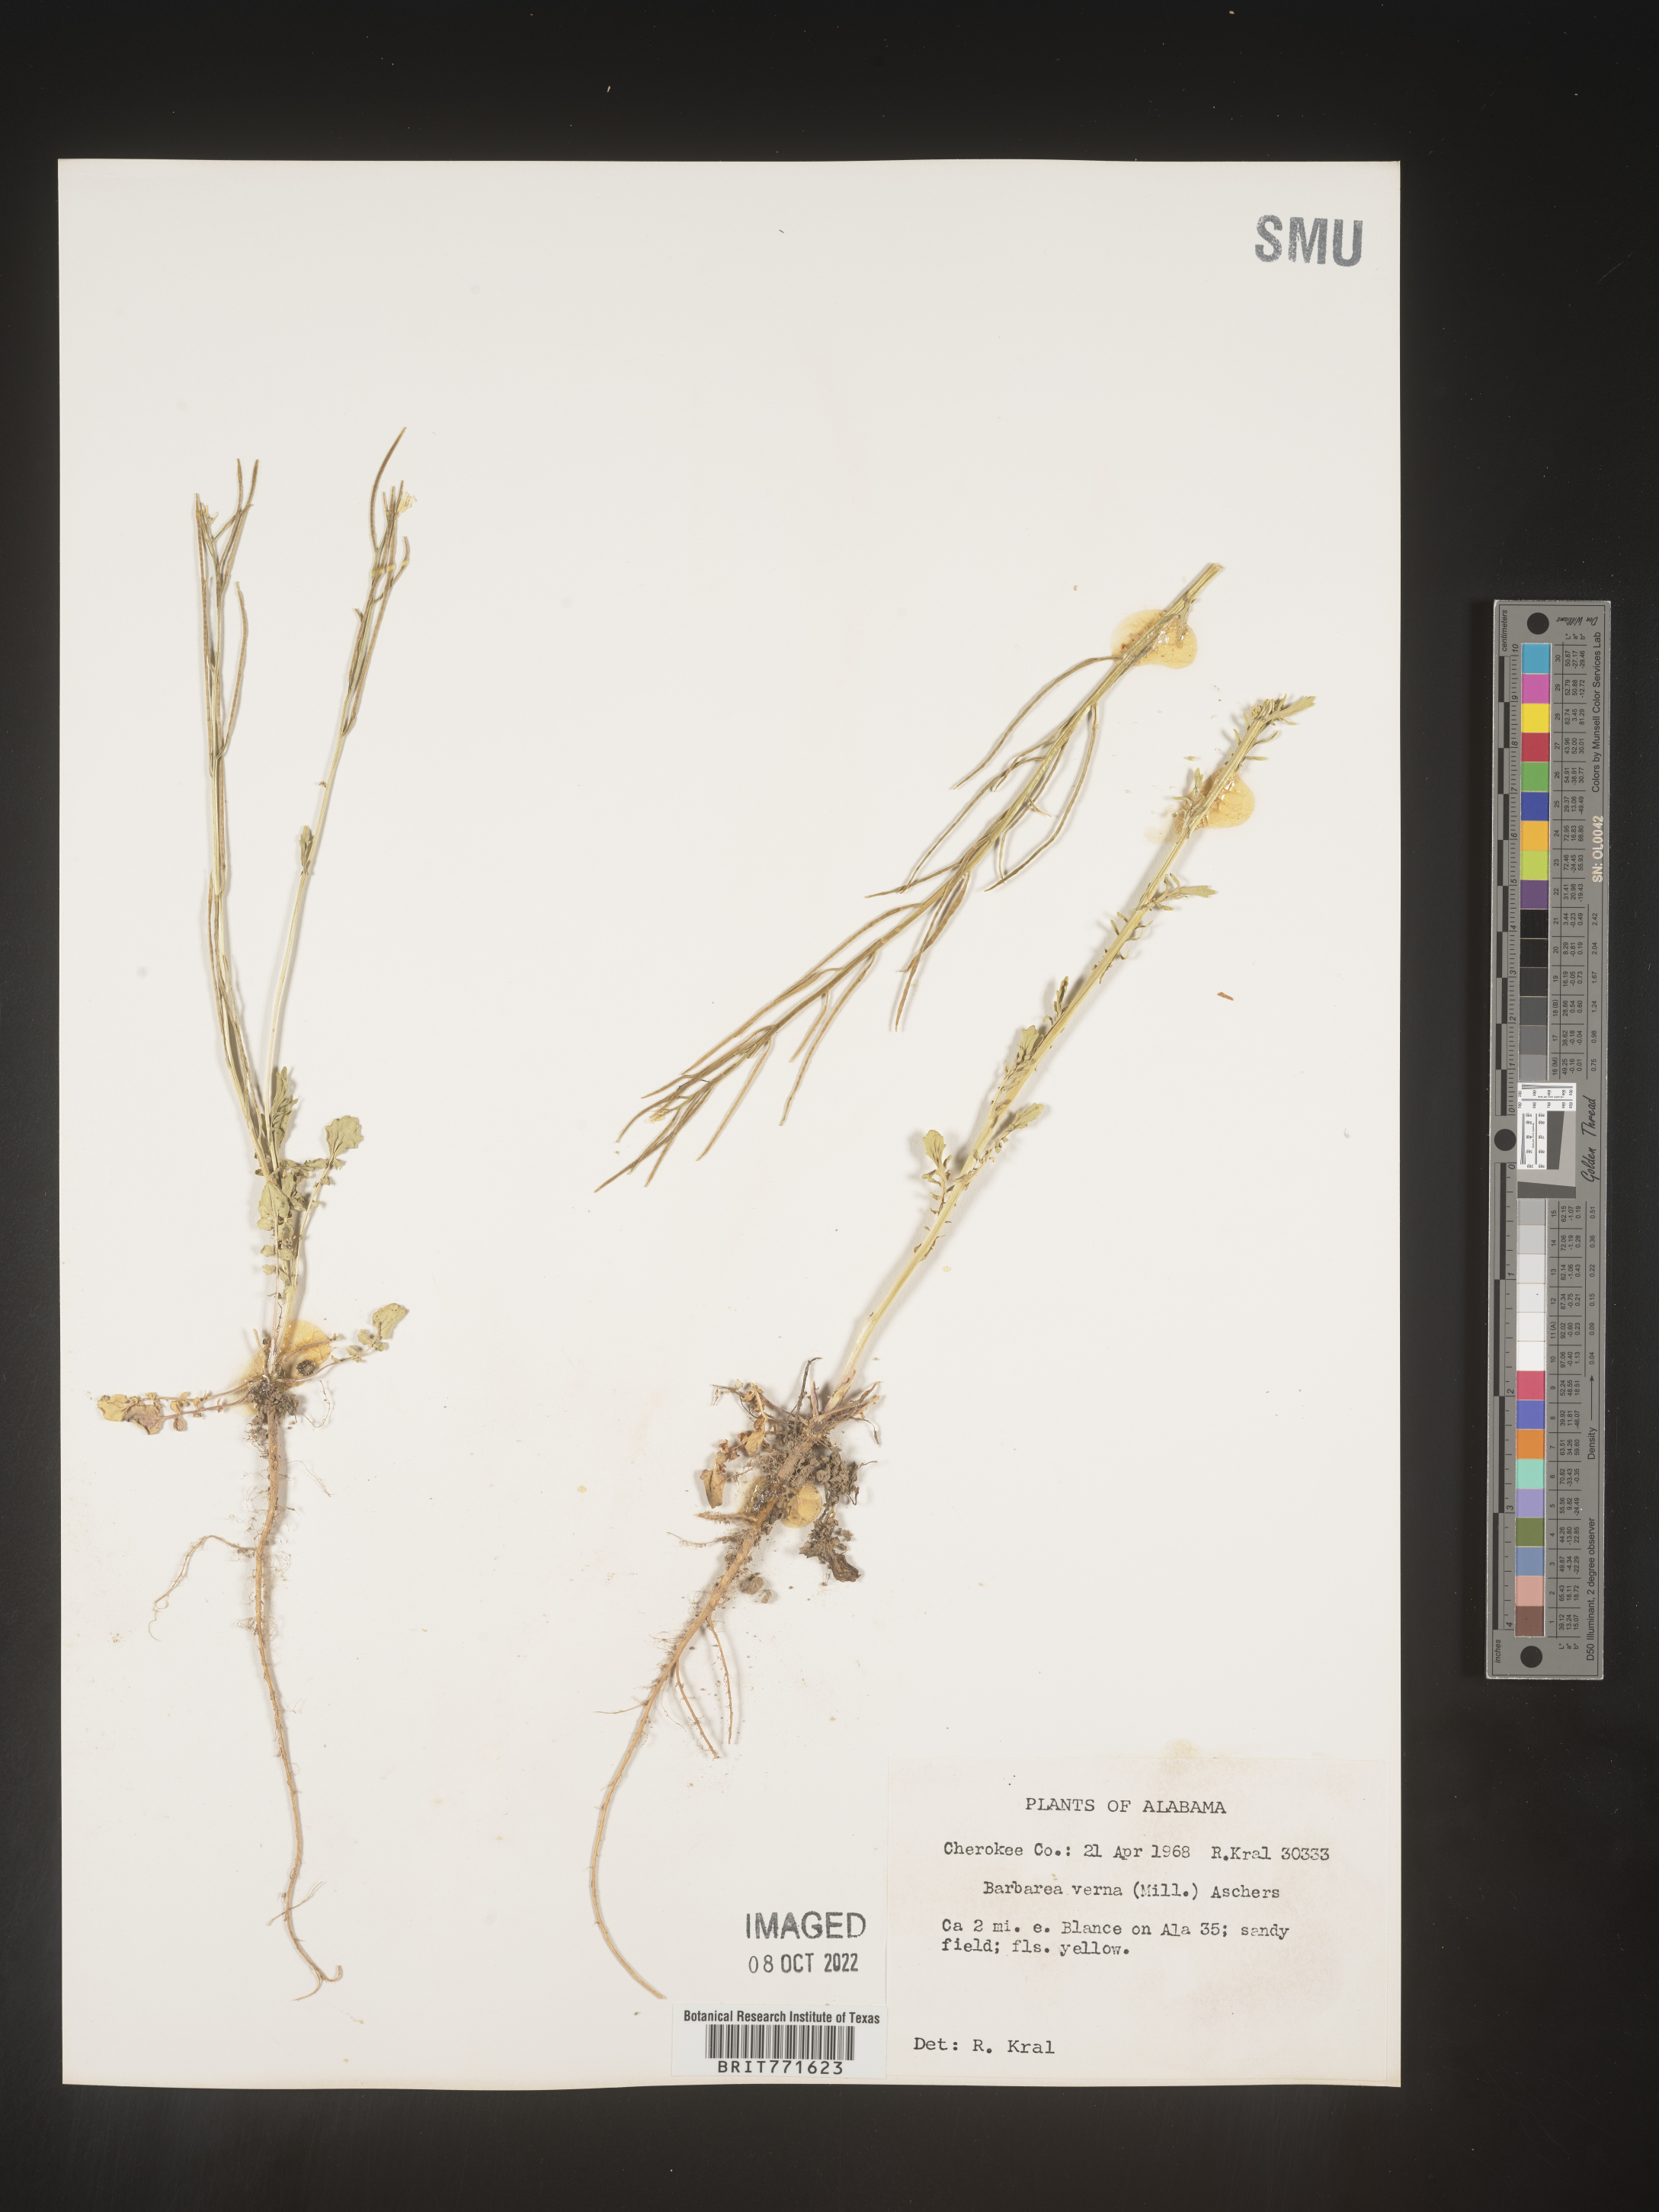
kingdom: Plantae
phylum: Tracheophyta
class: Magnoliopsida
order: Brassicales
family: Brassicaceae
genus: Barbarea
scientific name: Barbarea verna
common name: American cress
